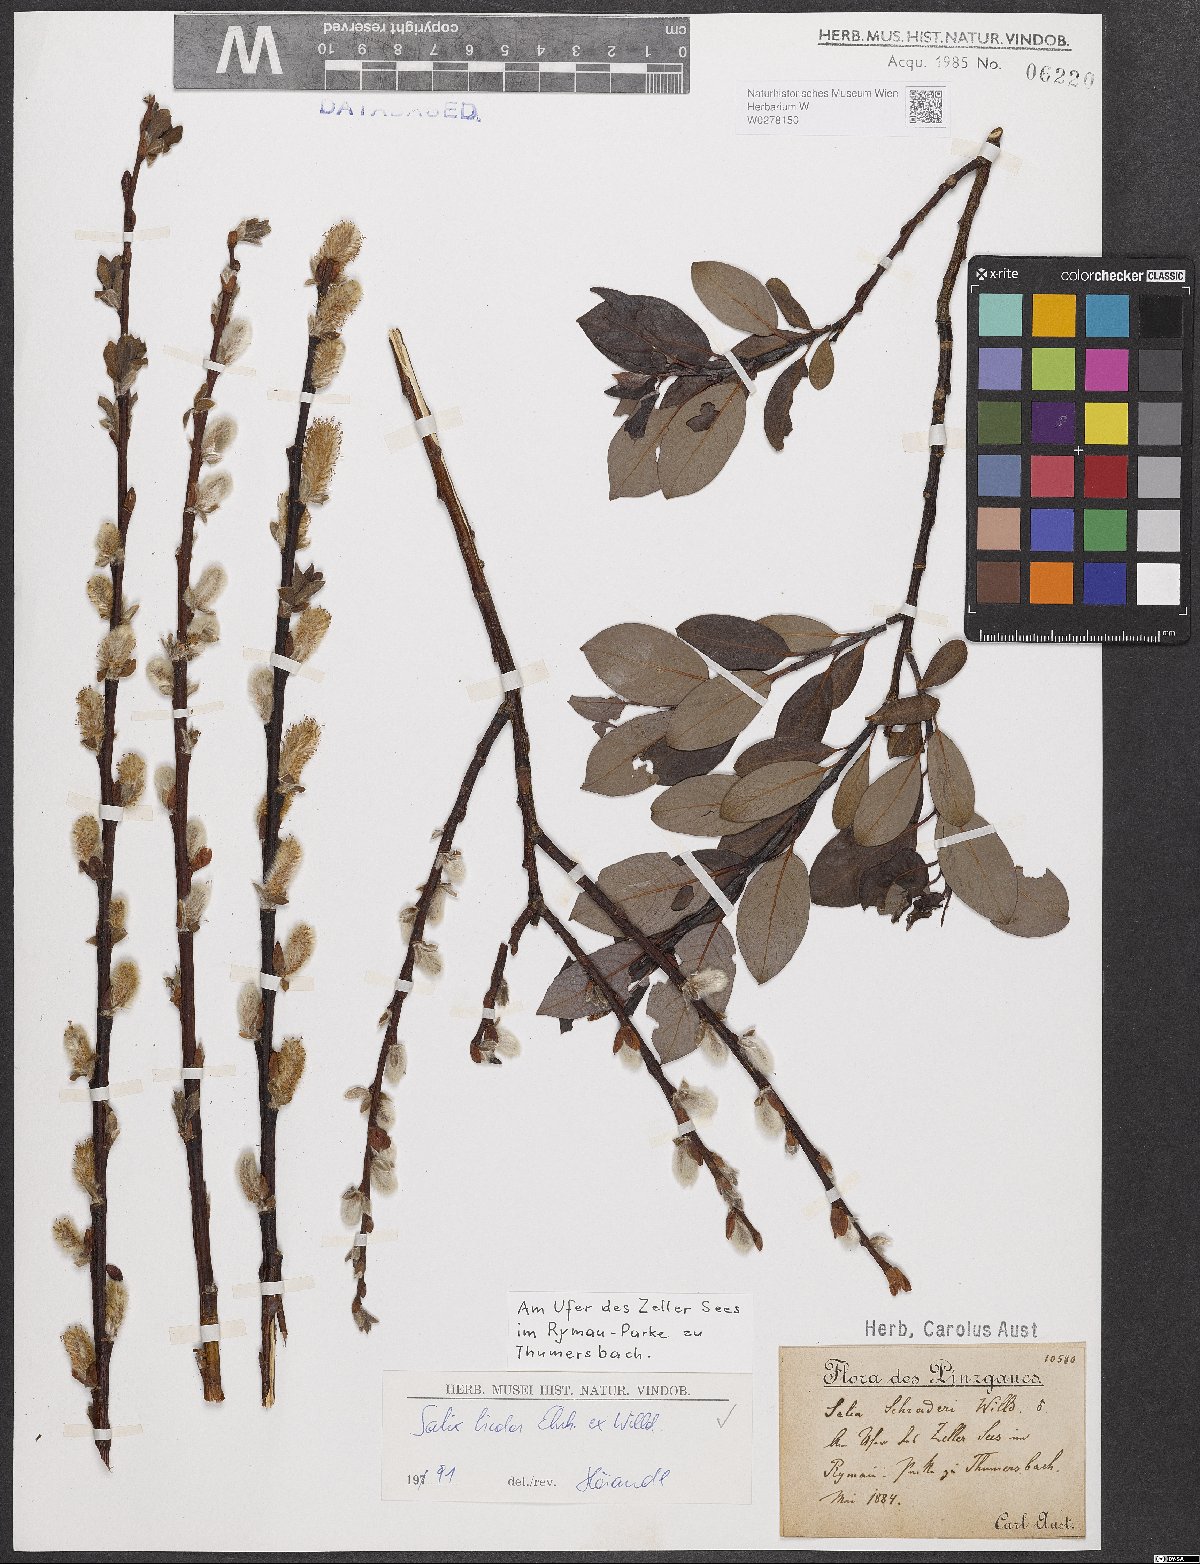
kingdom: Plantae
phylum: Tracheophyta
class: Magnoliopsida
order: Malpighiales
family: Salicaceae
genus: Salix
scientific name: Salix bicolor
